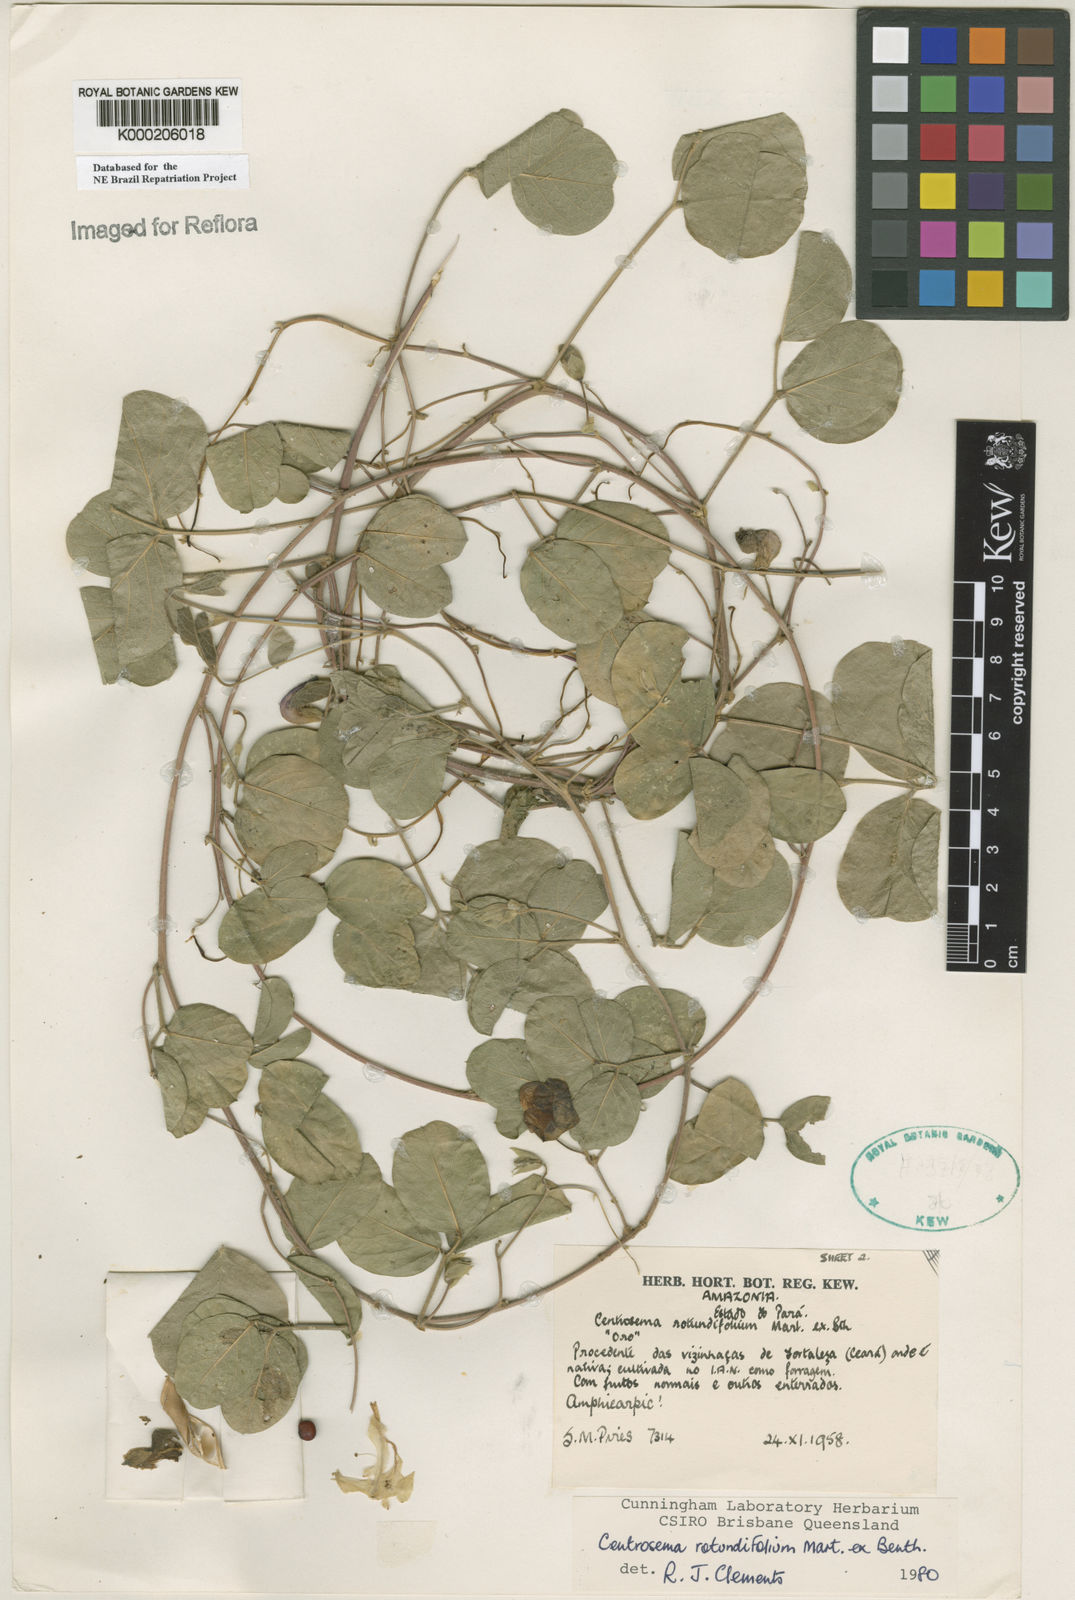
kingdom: Plantae
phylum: Tracheophyta
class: Magnoliopsida
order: Fabales
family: Fabaceae
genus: Centrosema
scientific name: Centrosema rotundifolium
